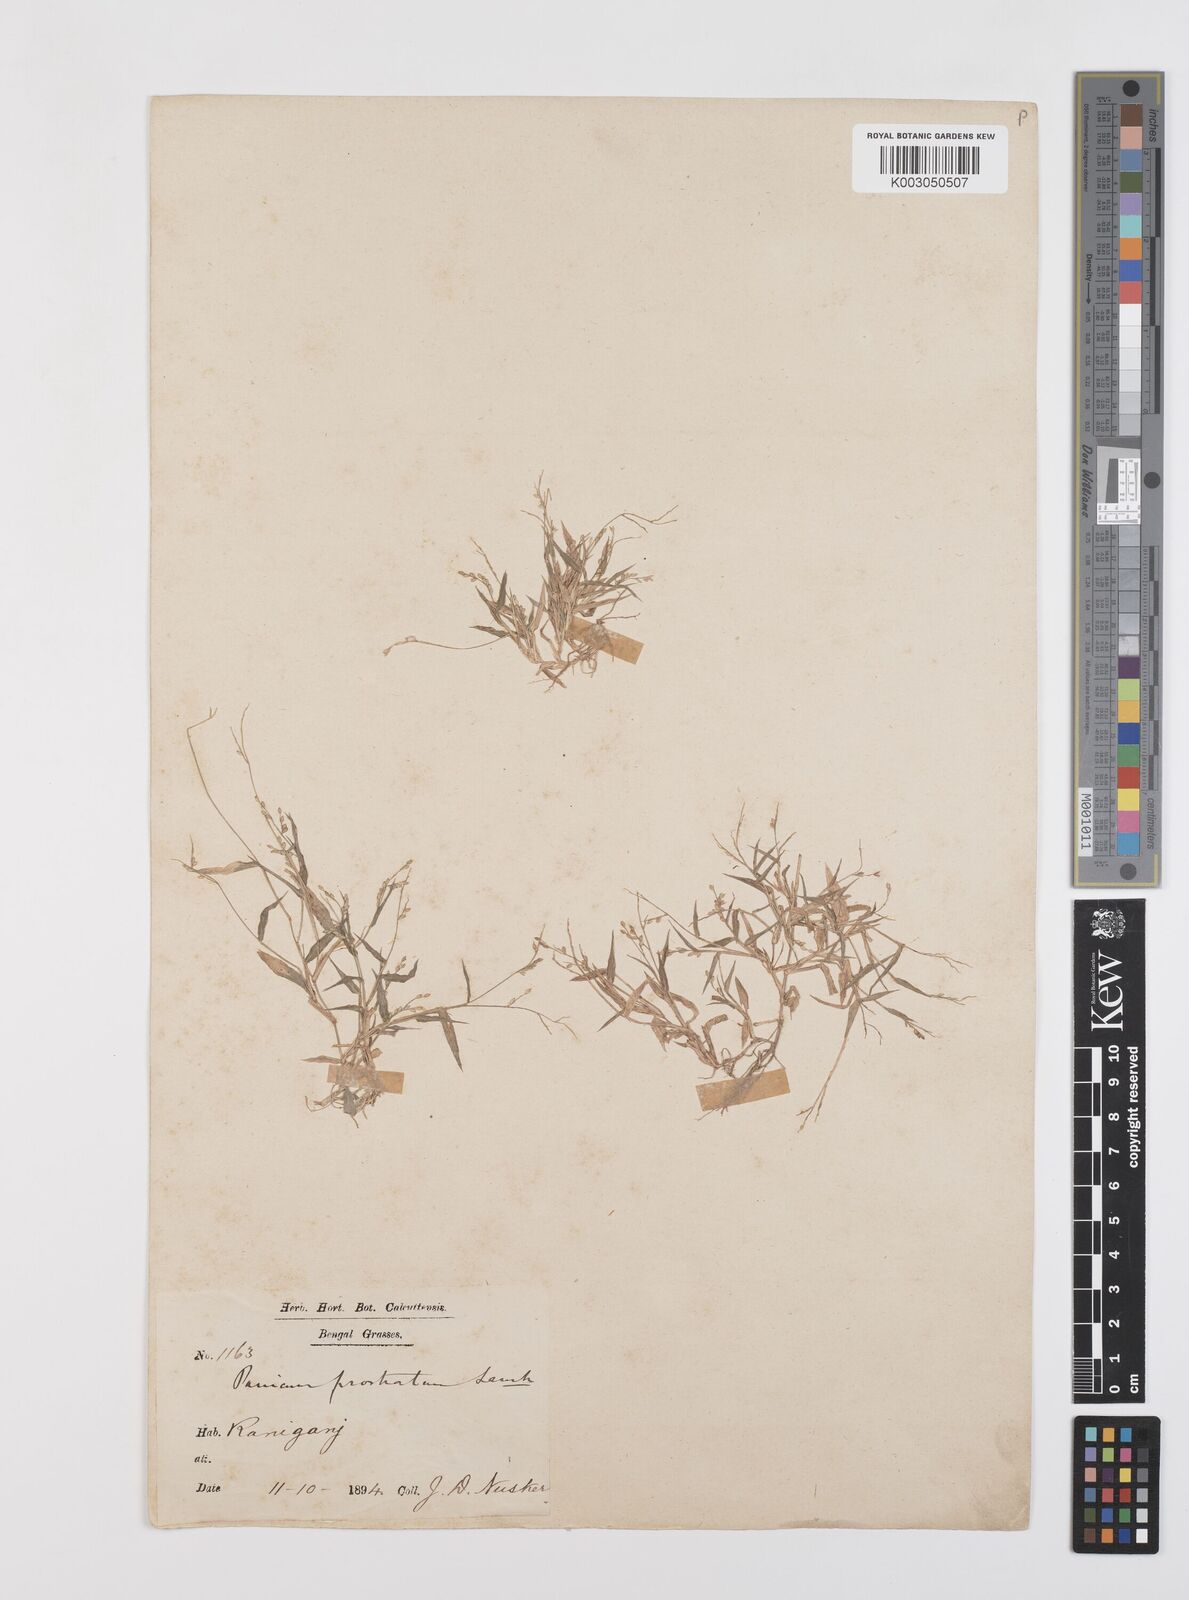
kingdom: Plantae
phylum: Tracheophyta
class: Liliopsida
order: Poales
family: Poaceae
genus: Urochloa
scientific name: Urochloa reptans
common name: Sprawling signalgrass
